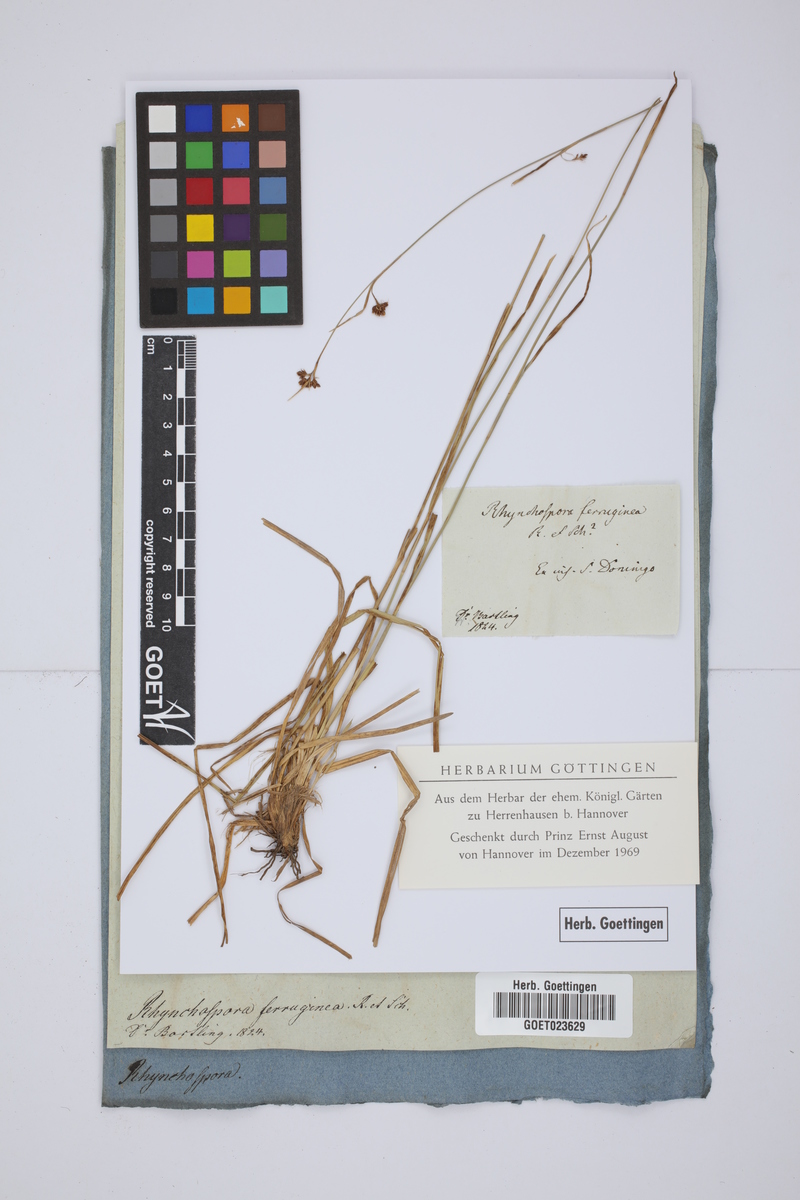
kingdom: Plantae
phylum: Tracheophyta
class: Liliopsida
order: Poales
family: Cyperaceae
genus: Rhynchospora
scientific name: Rhynchospora rugosa
